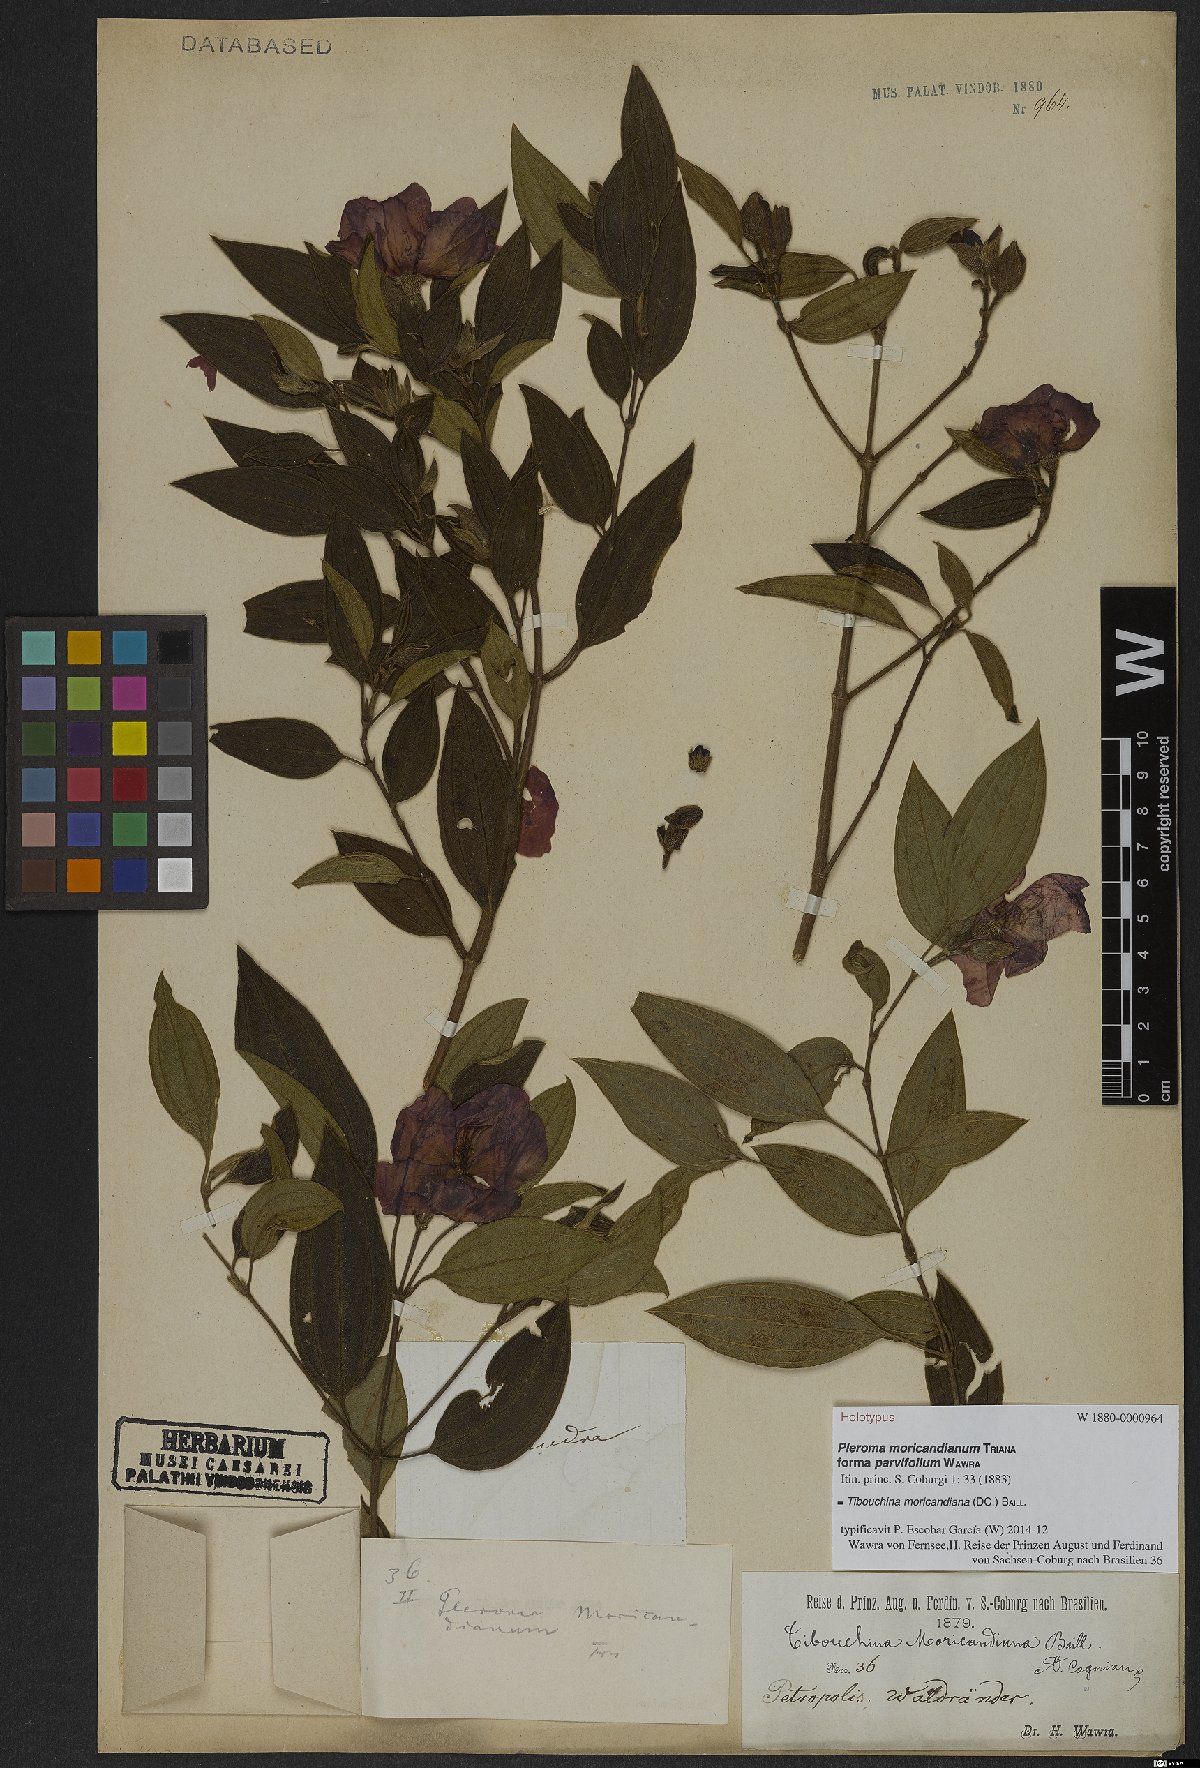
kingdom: Plantae
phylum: Tracheophyta
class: Magnoliopsida
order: Myrtales
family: Melastomataceae
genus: Pleroma
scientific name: Pleroma gaudichaudianum
